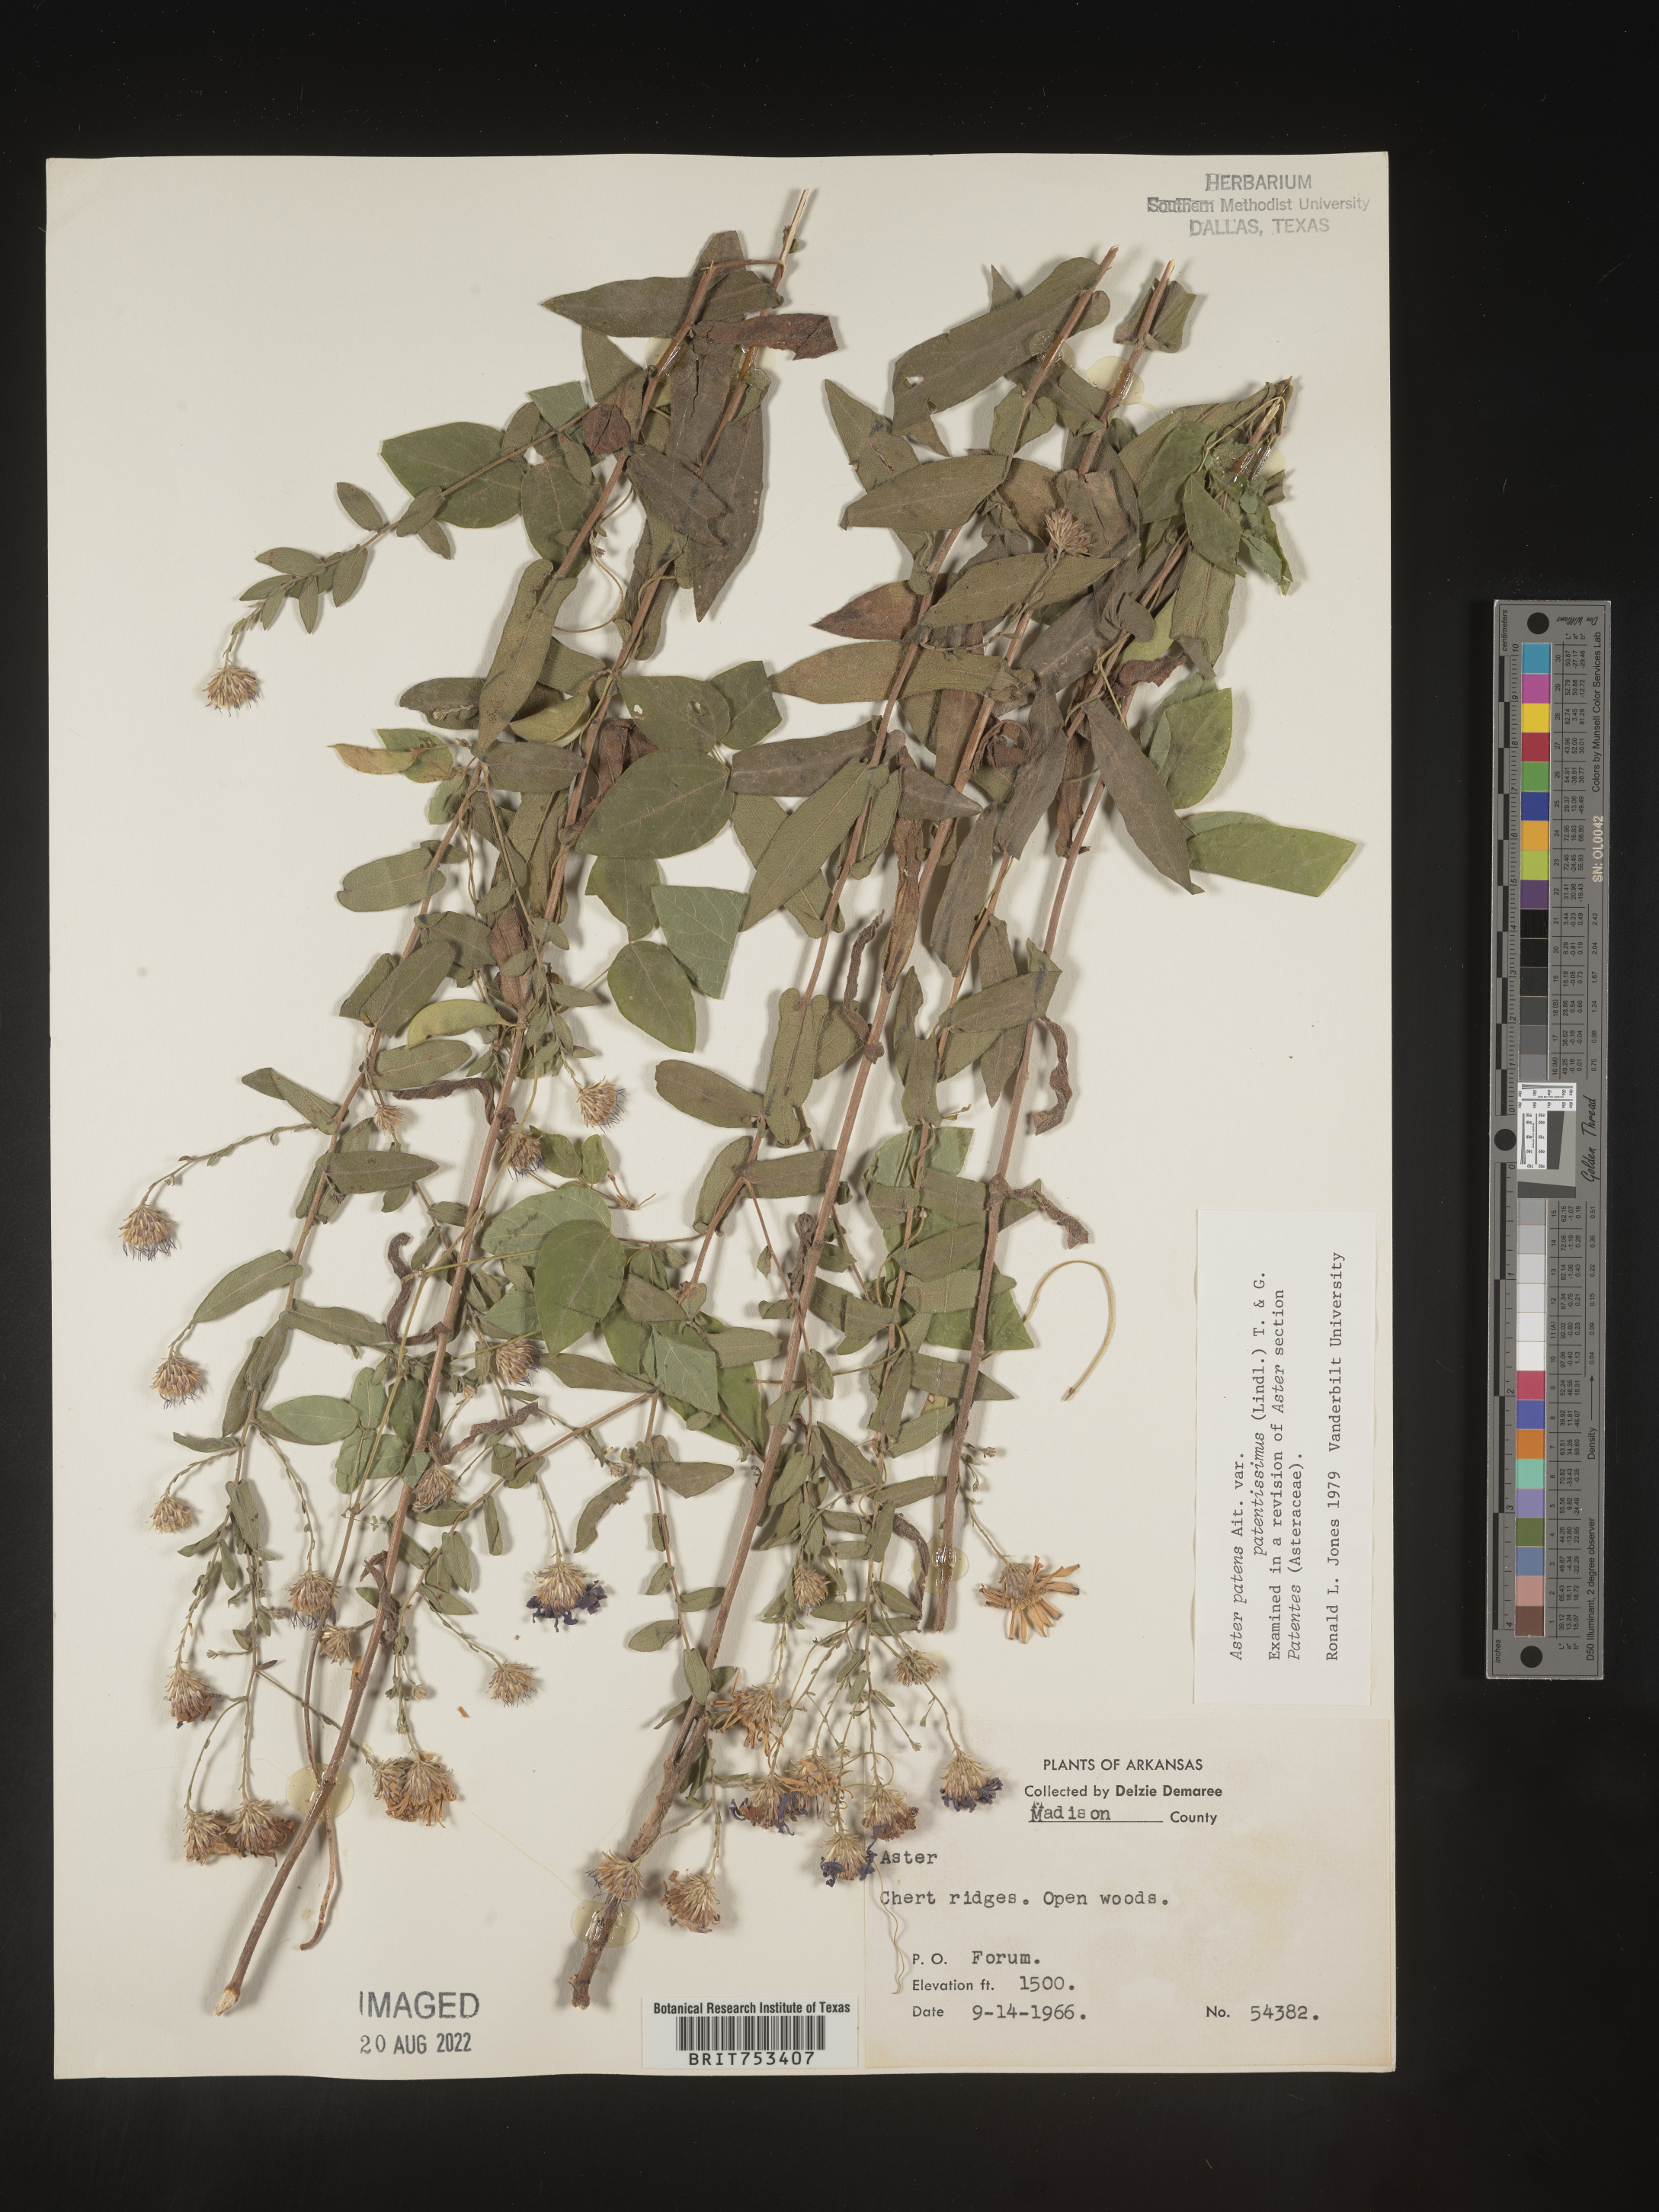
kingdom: Plantae
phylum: Tracheophyta
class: Magnoliopsida
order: Asterales
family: Asteraceae
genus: Symphyotrichum
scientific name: Symphyotrichum patens
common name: Late purple aster
